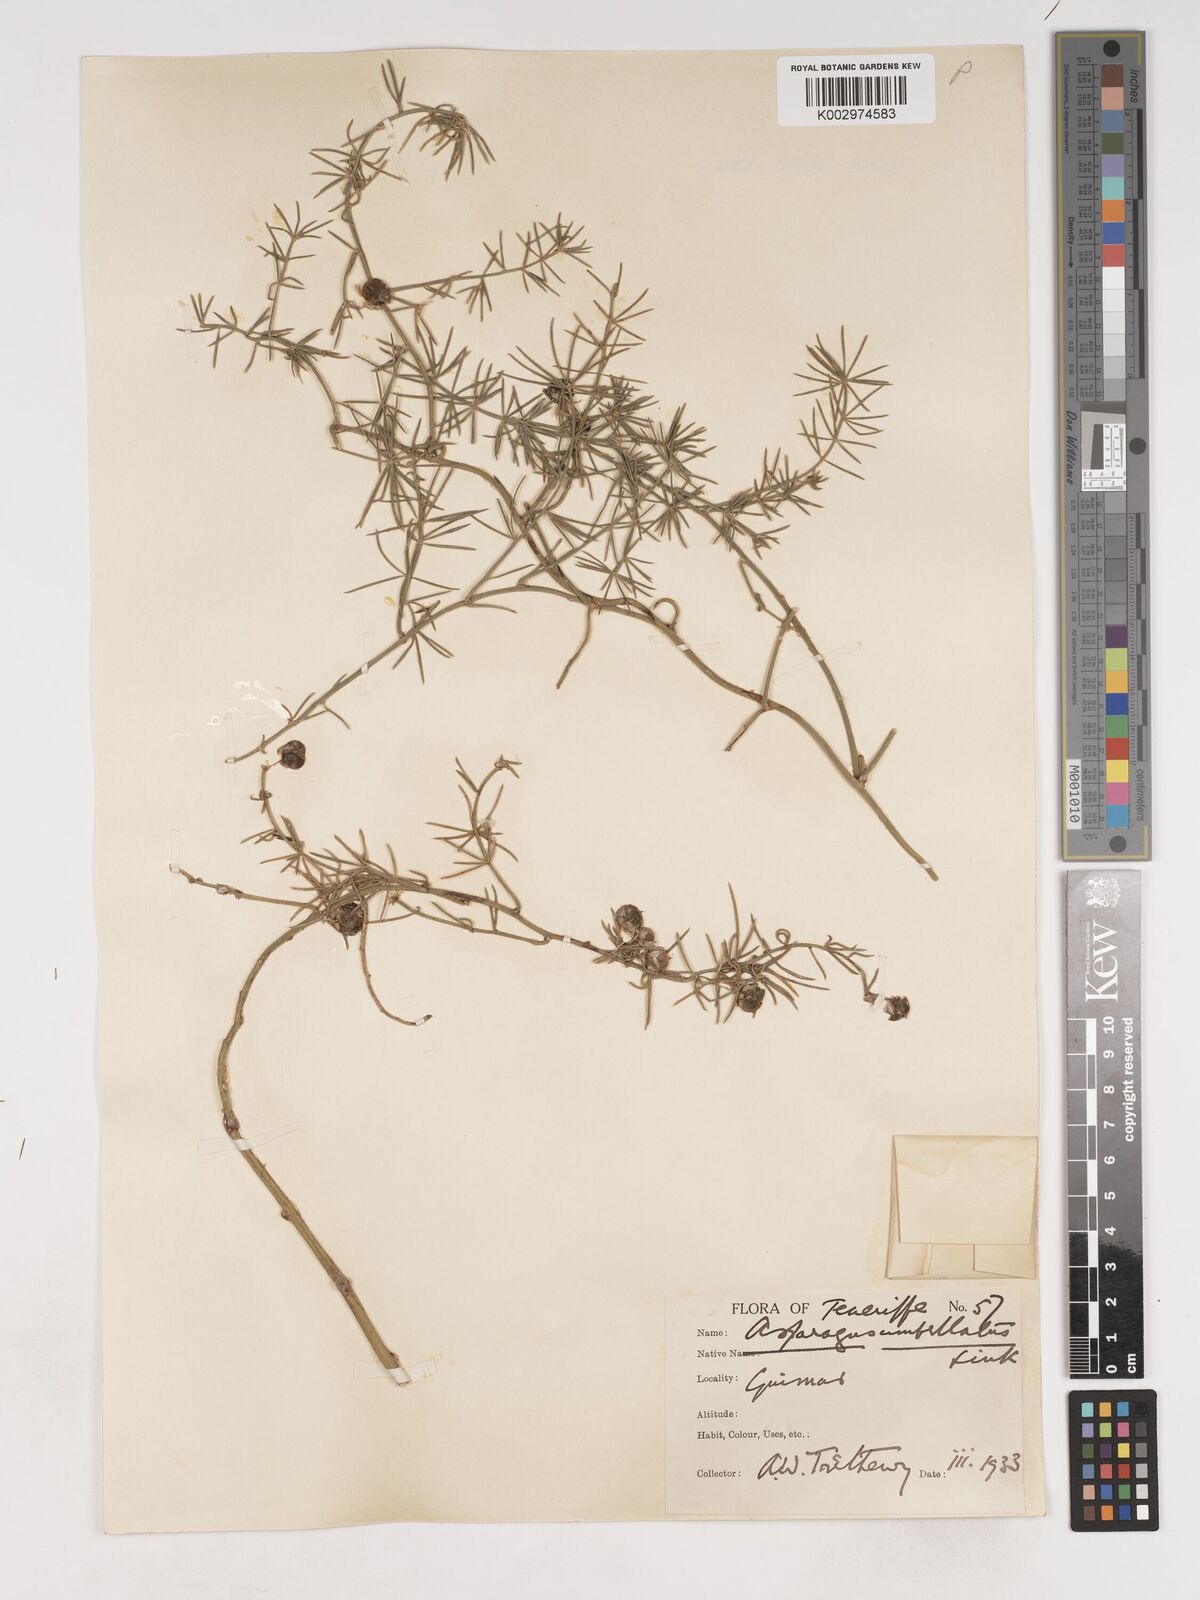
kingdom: Plantae
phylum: Tracheophyta
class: Liliopsida
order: Asparagales
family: Asparagaceae
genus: Asparagus
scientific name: Asparagus umbellatus
